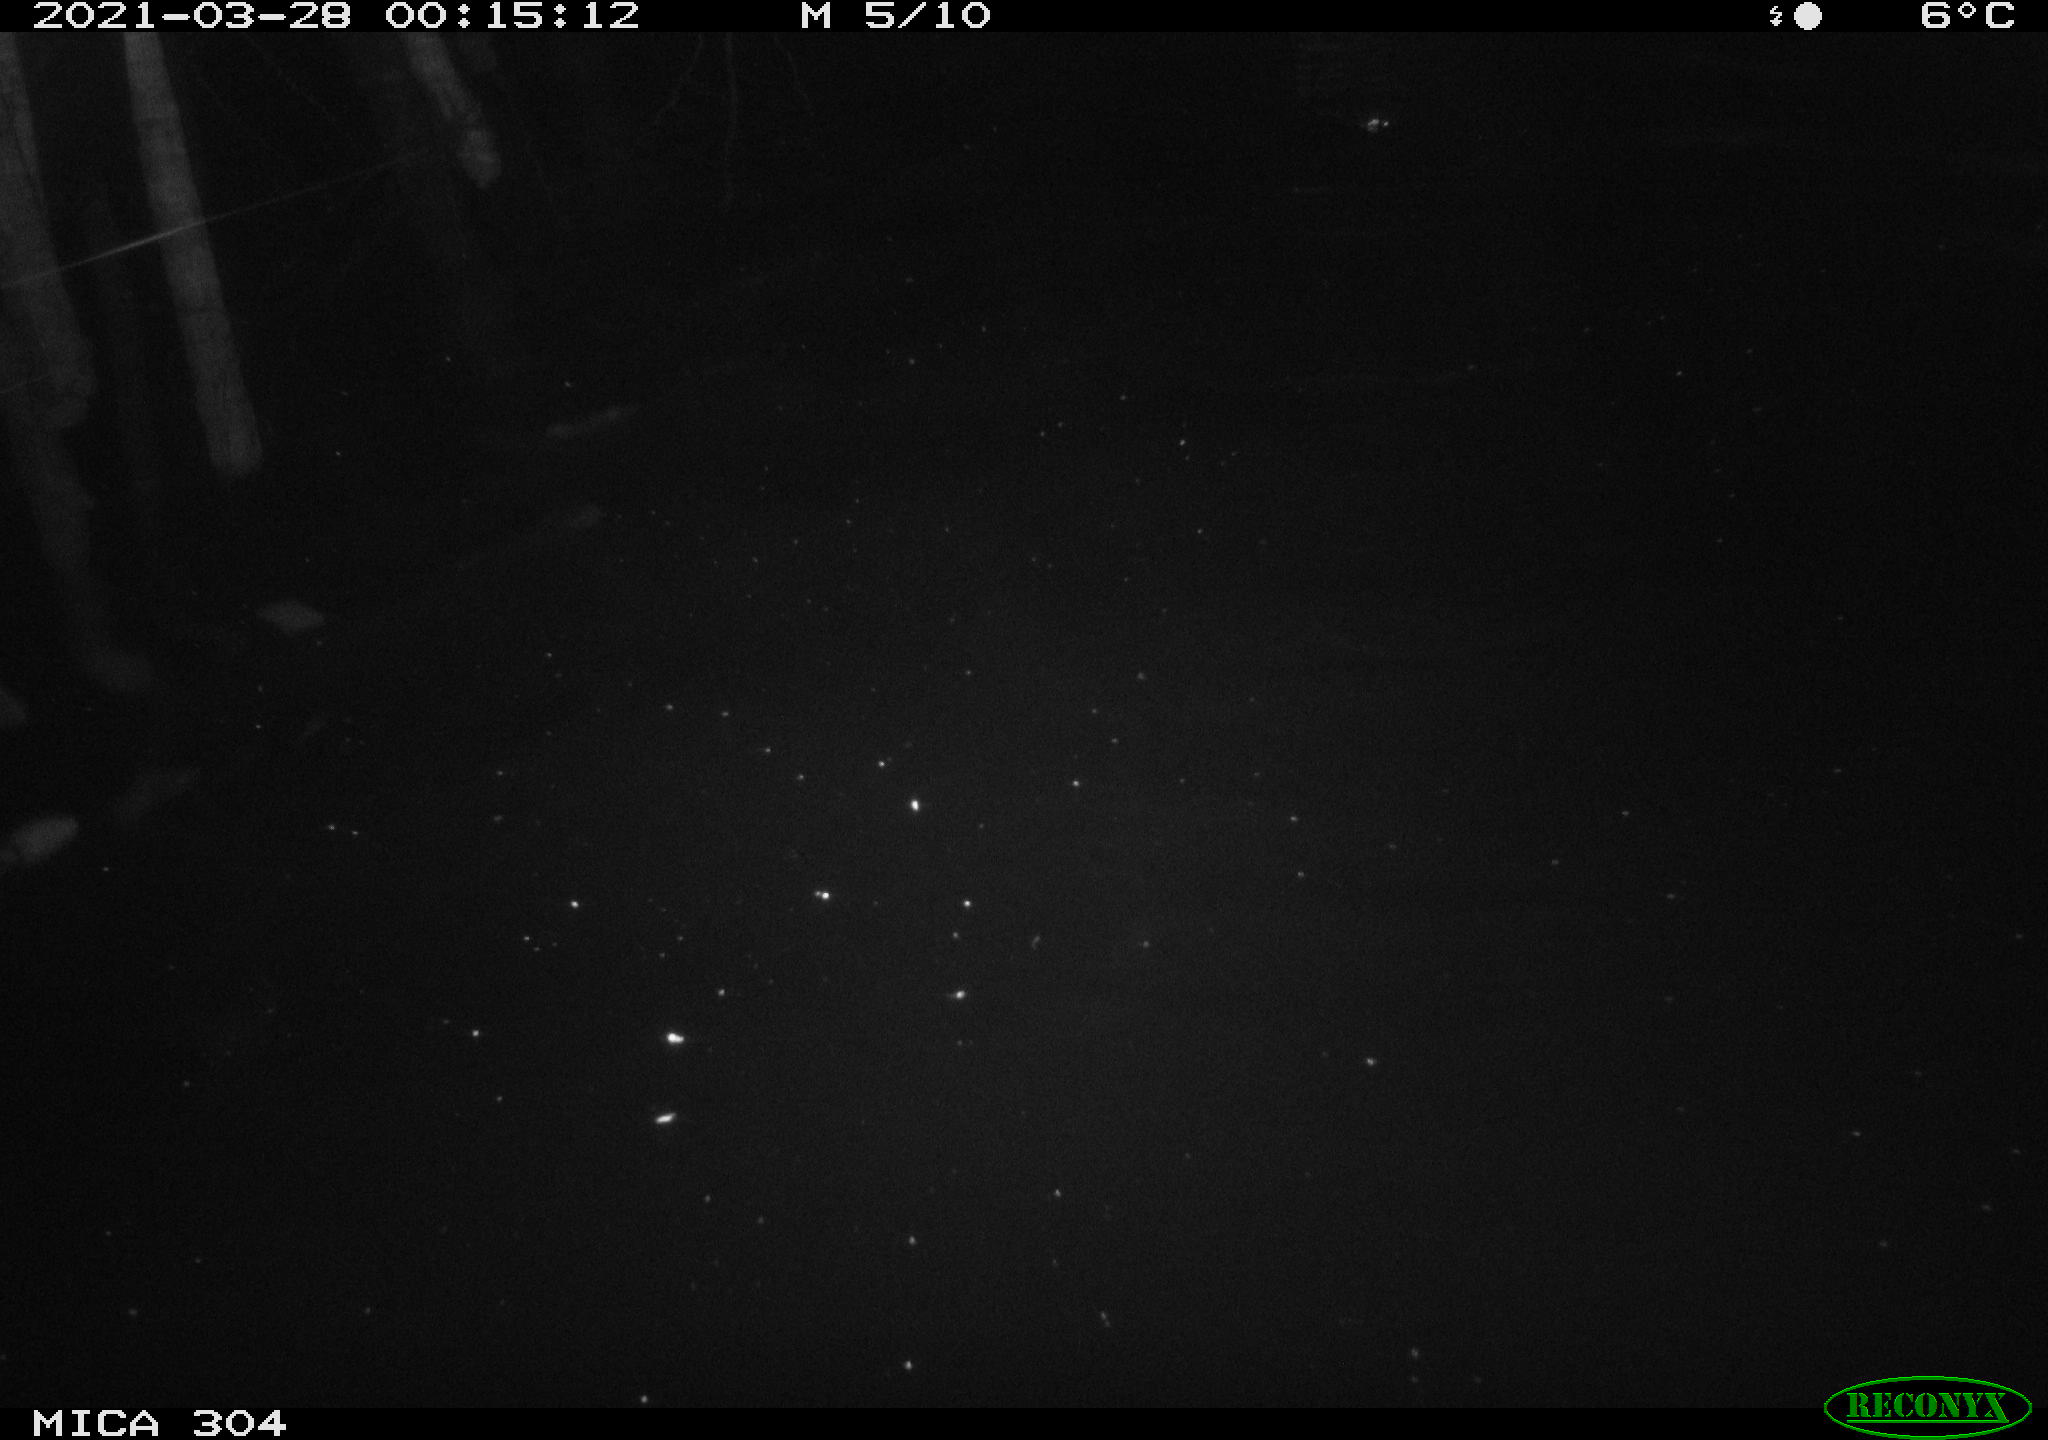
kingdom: Animalia
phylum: Chordata
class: Aves
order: Anseriformes
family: Anatidae
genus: Anas
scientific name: Anas platyrhynchos
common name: Mallard
